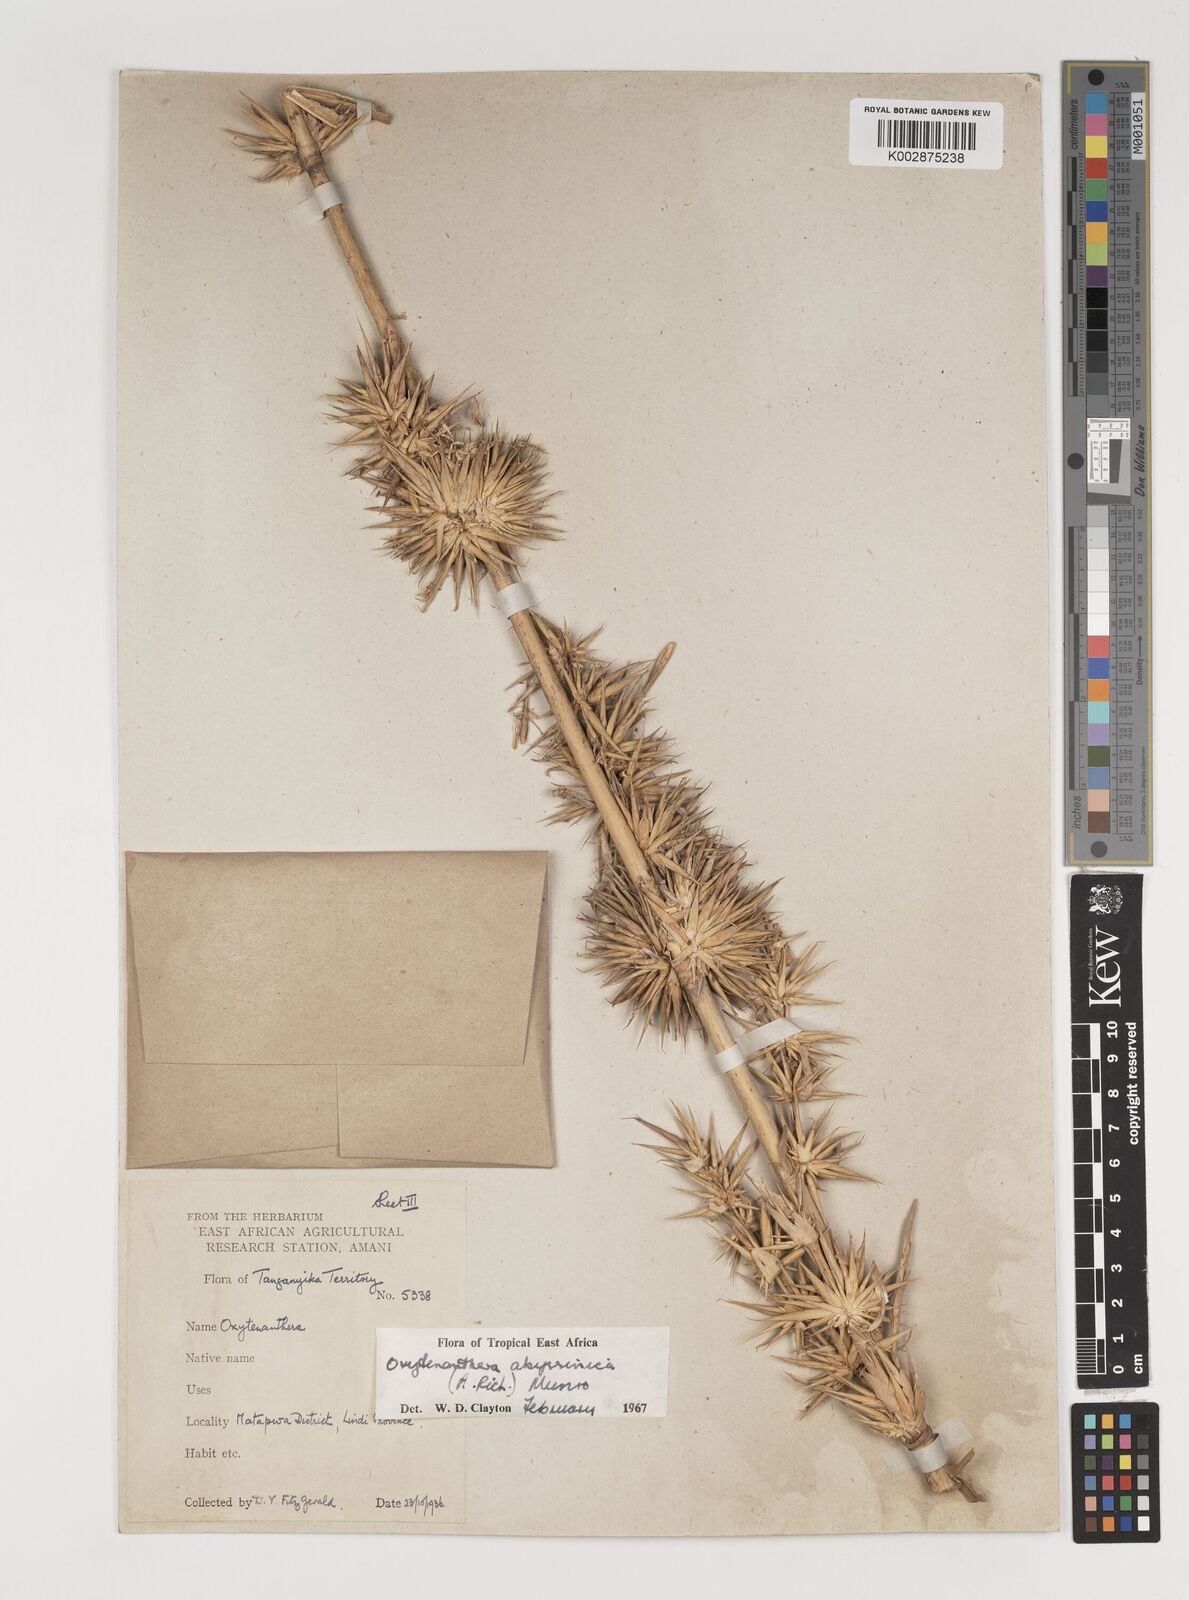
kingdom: Plantae
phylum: Tracheophyta
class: Liliopsida
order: Poales
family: Poaceae
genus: Oxytenanthera
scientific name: Oxytenanthera
